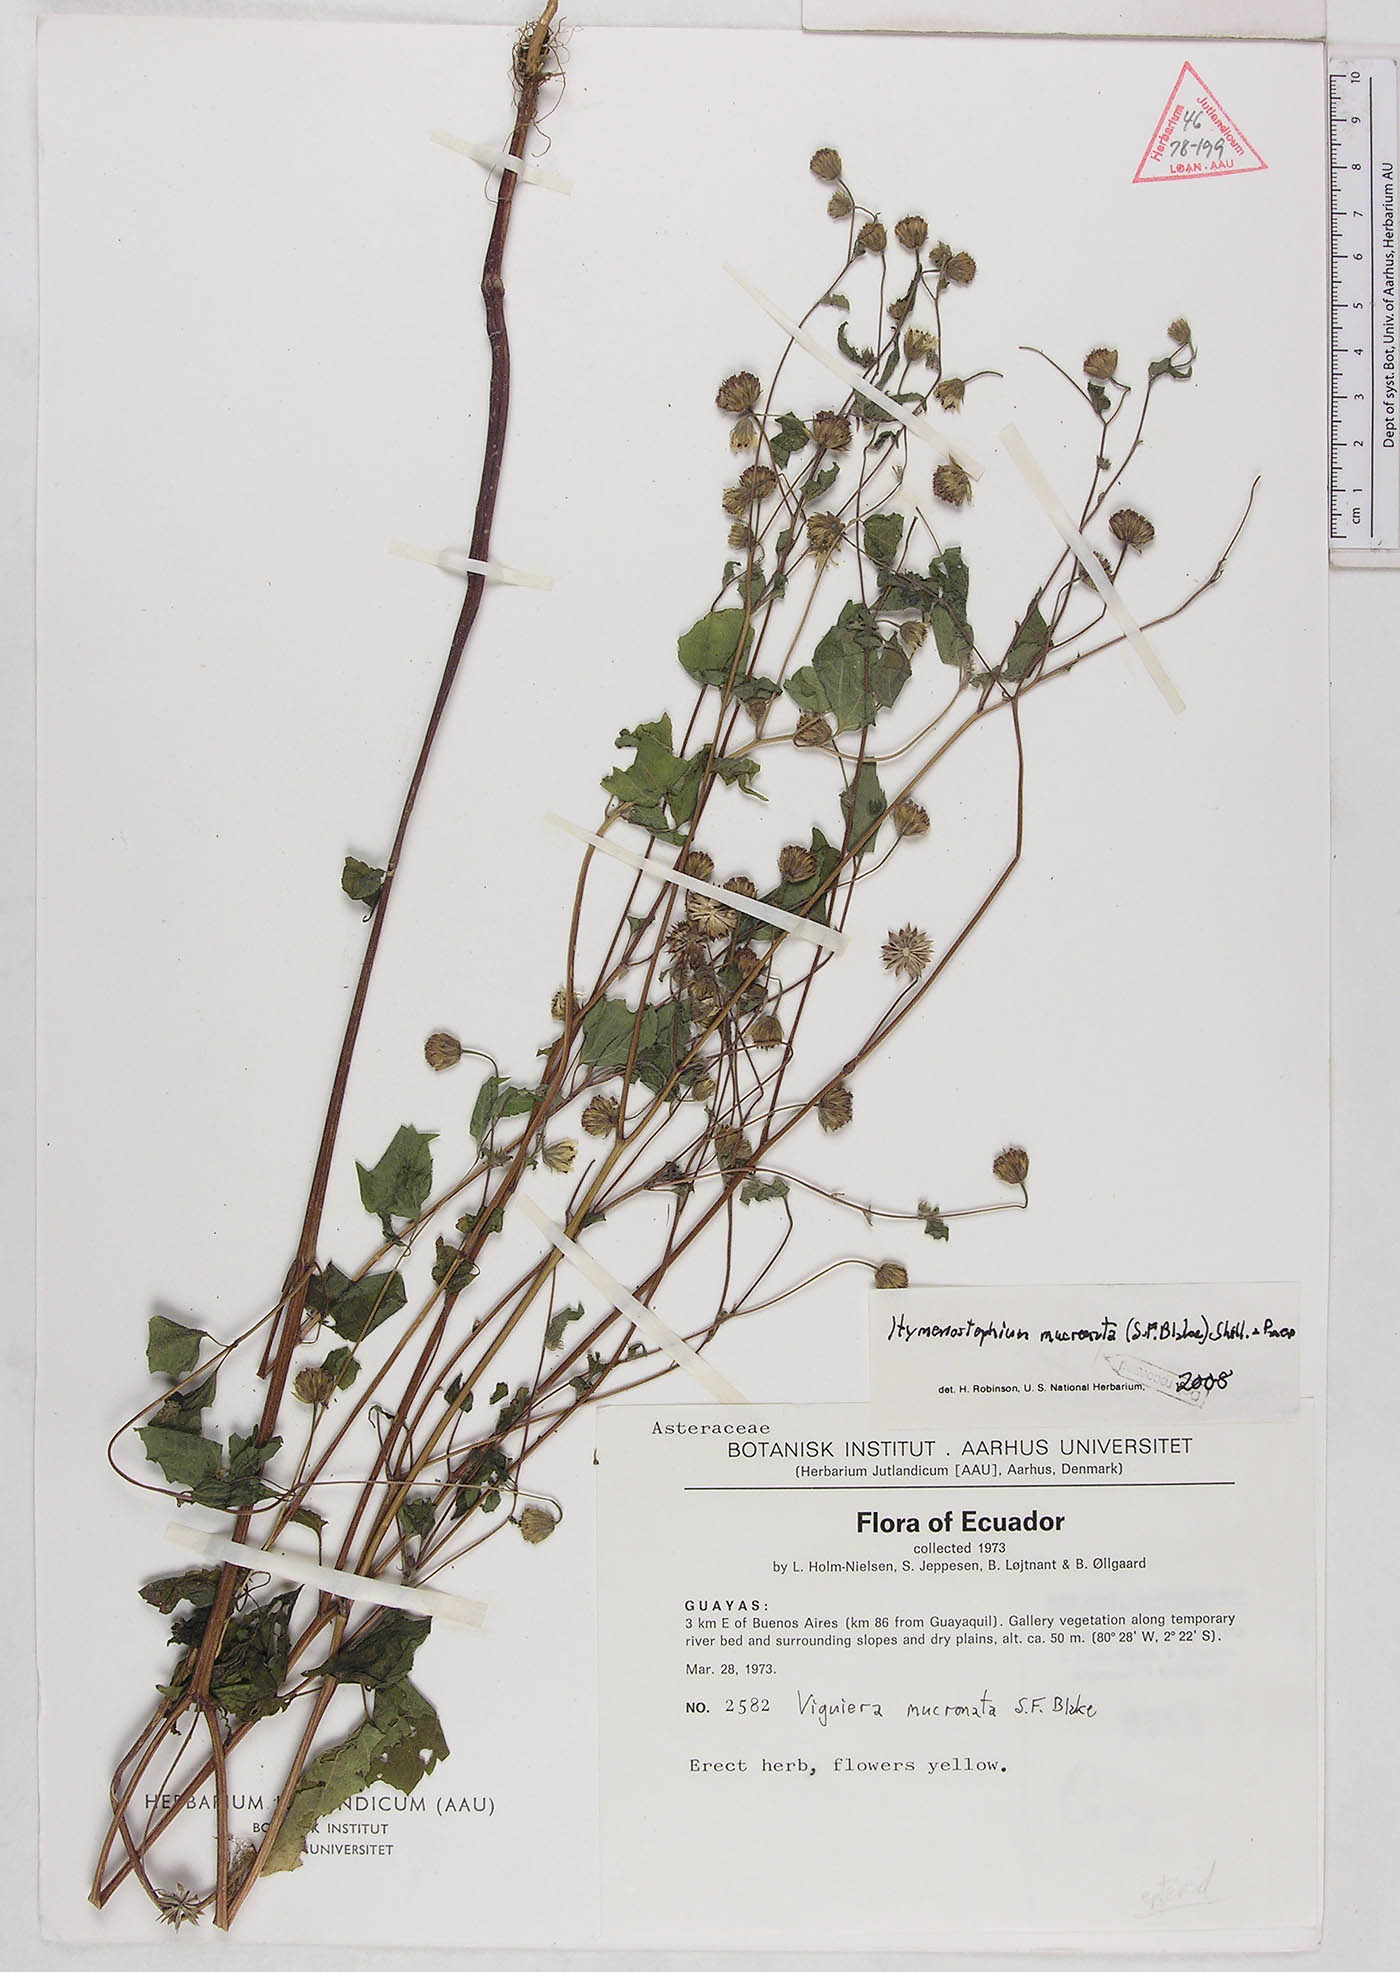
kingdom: Plantae
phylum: Tracheophyta
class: Magnoliopsida
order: Asterales
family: Asteraceae
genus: Hymenostephium
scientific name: Hymenostephium mucronatum
